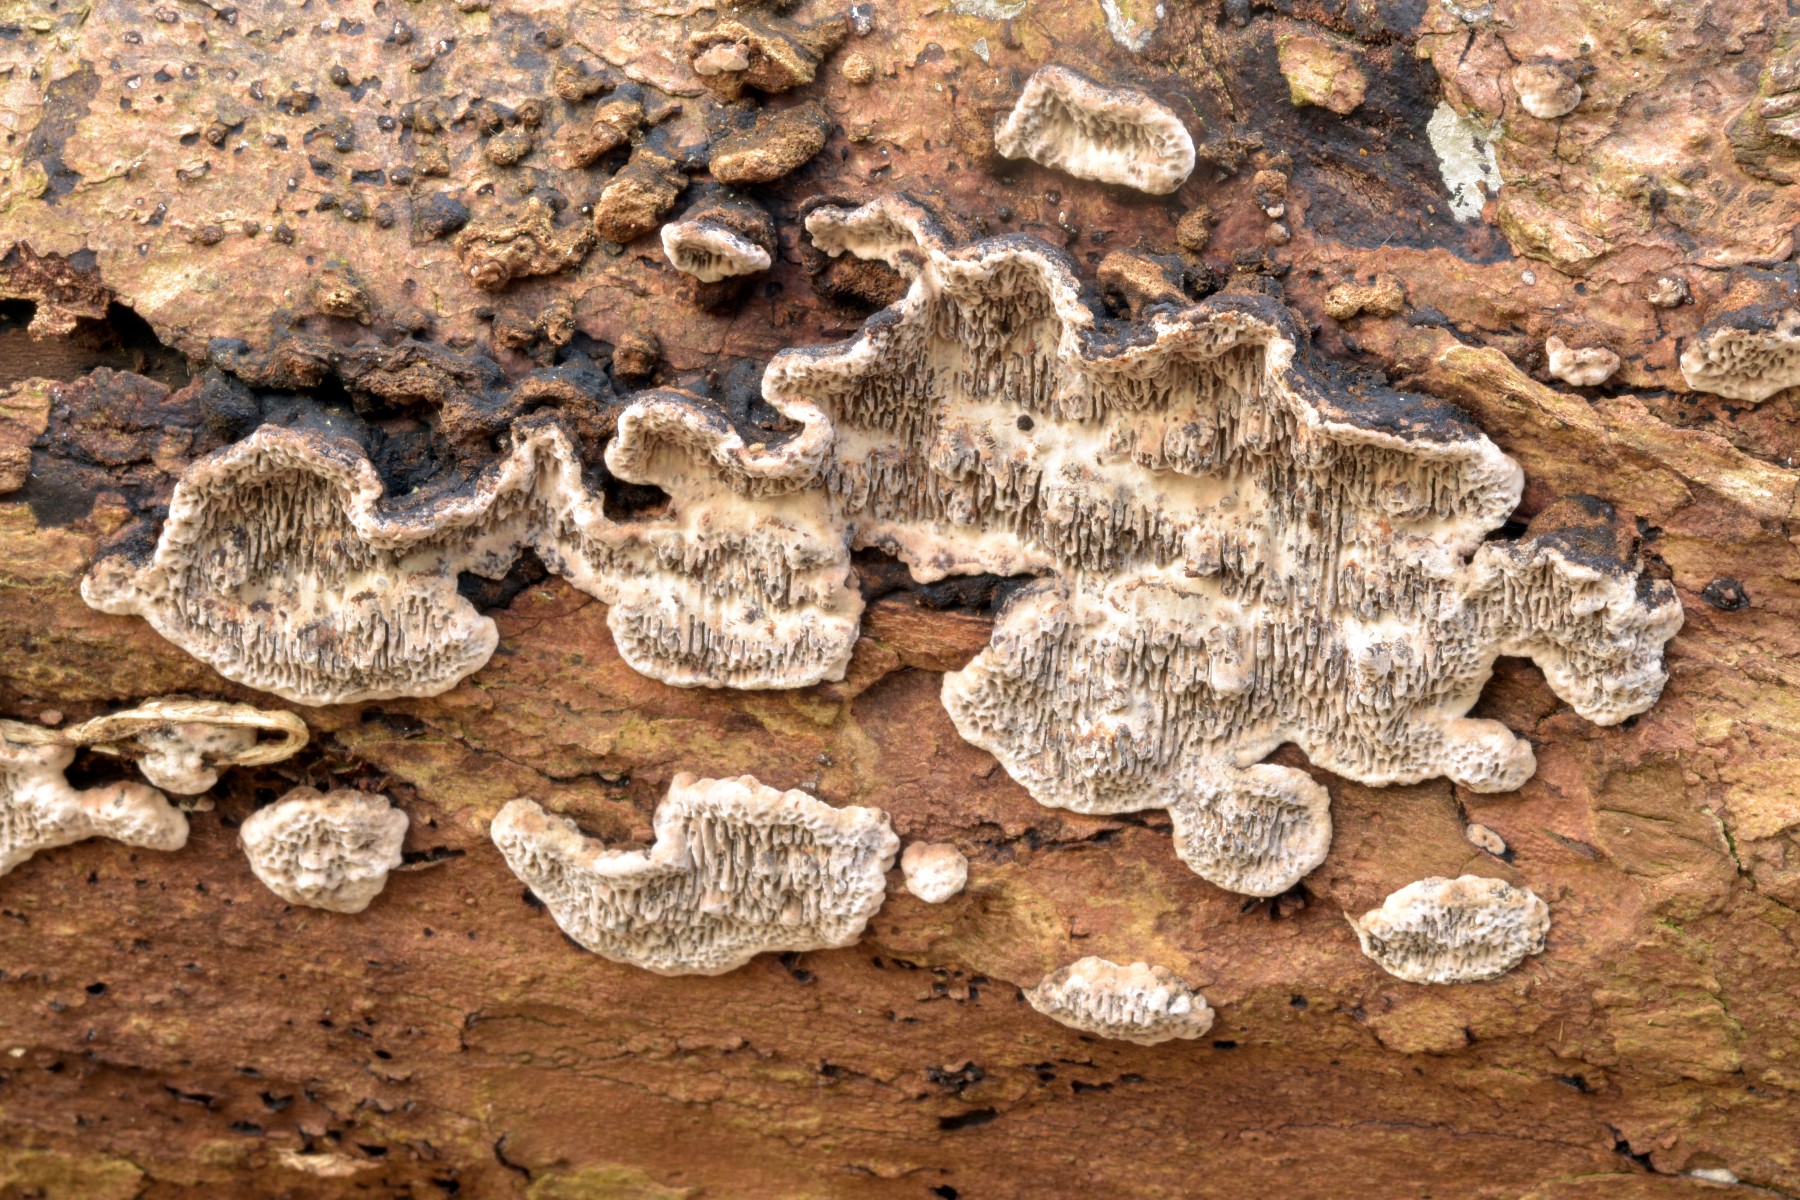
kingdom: Fungi
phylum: Basidiomycota
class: Agaricomycetes
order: Polyporales
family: Polyporaceae
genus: Podofomes
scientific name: Podofomes mollis
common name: blød begporesvamp
